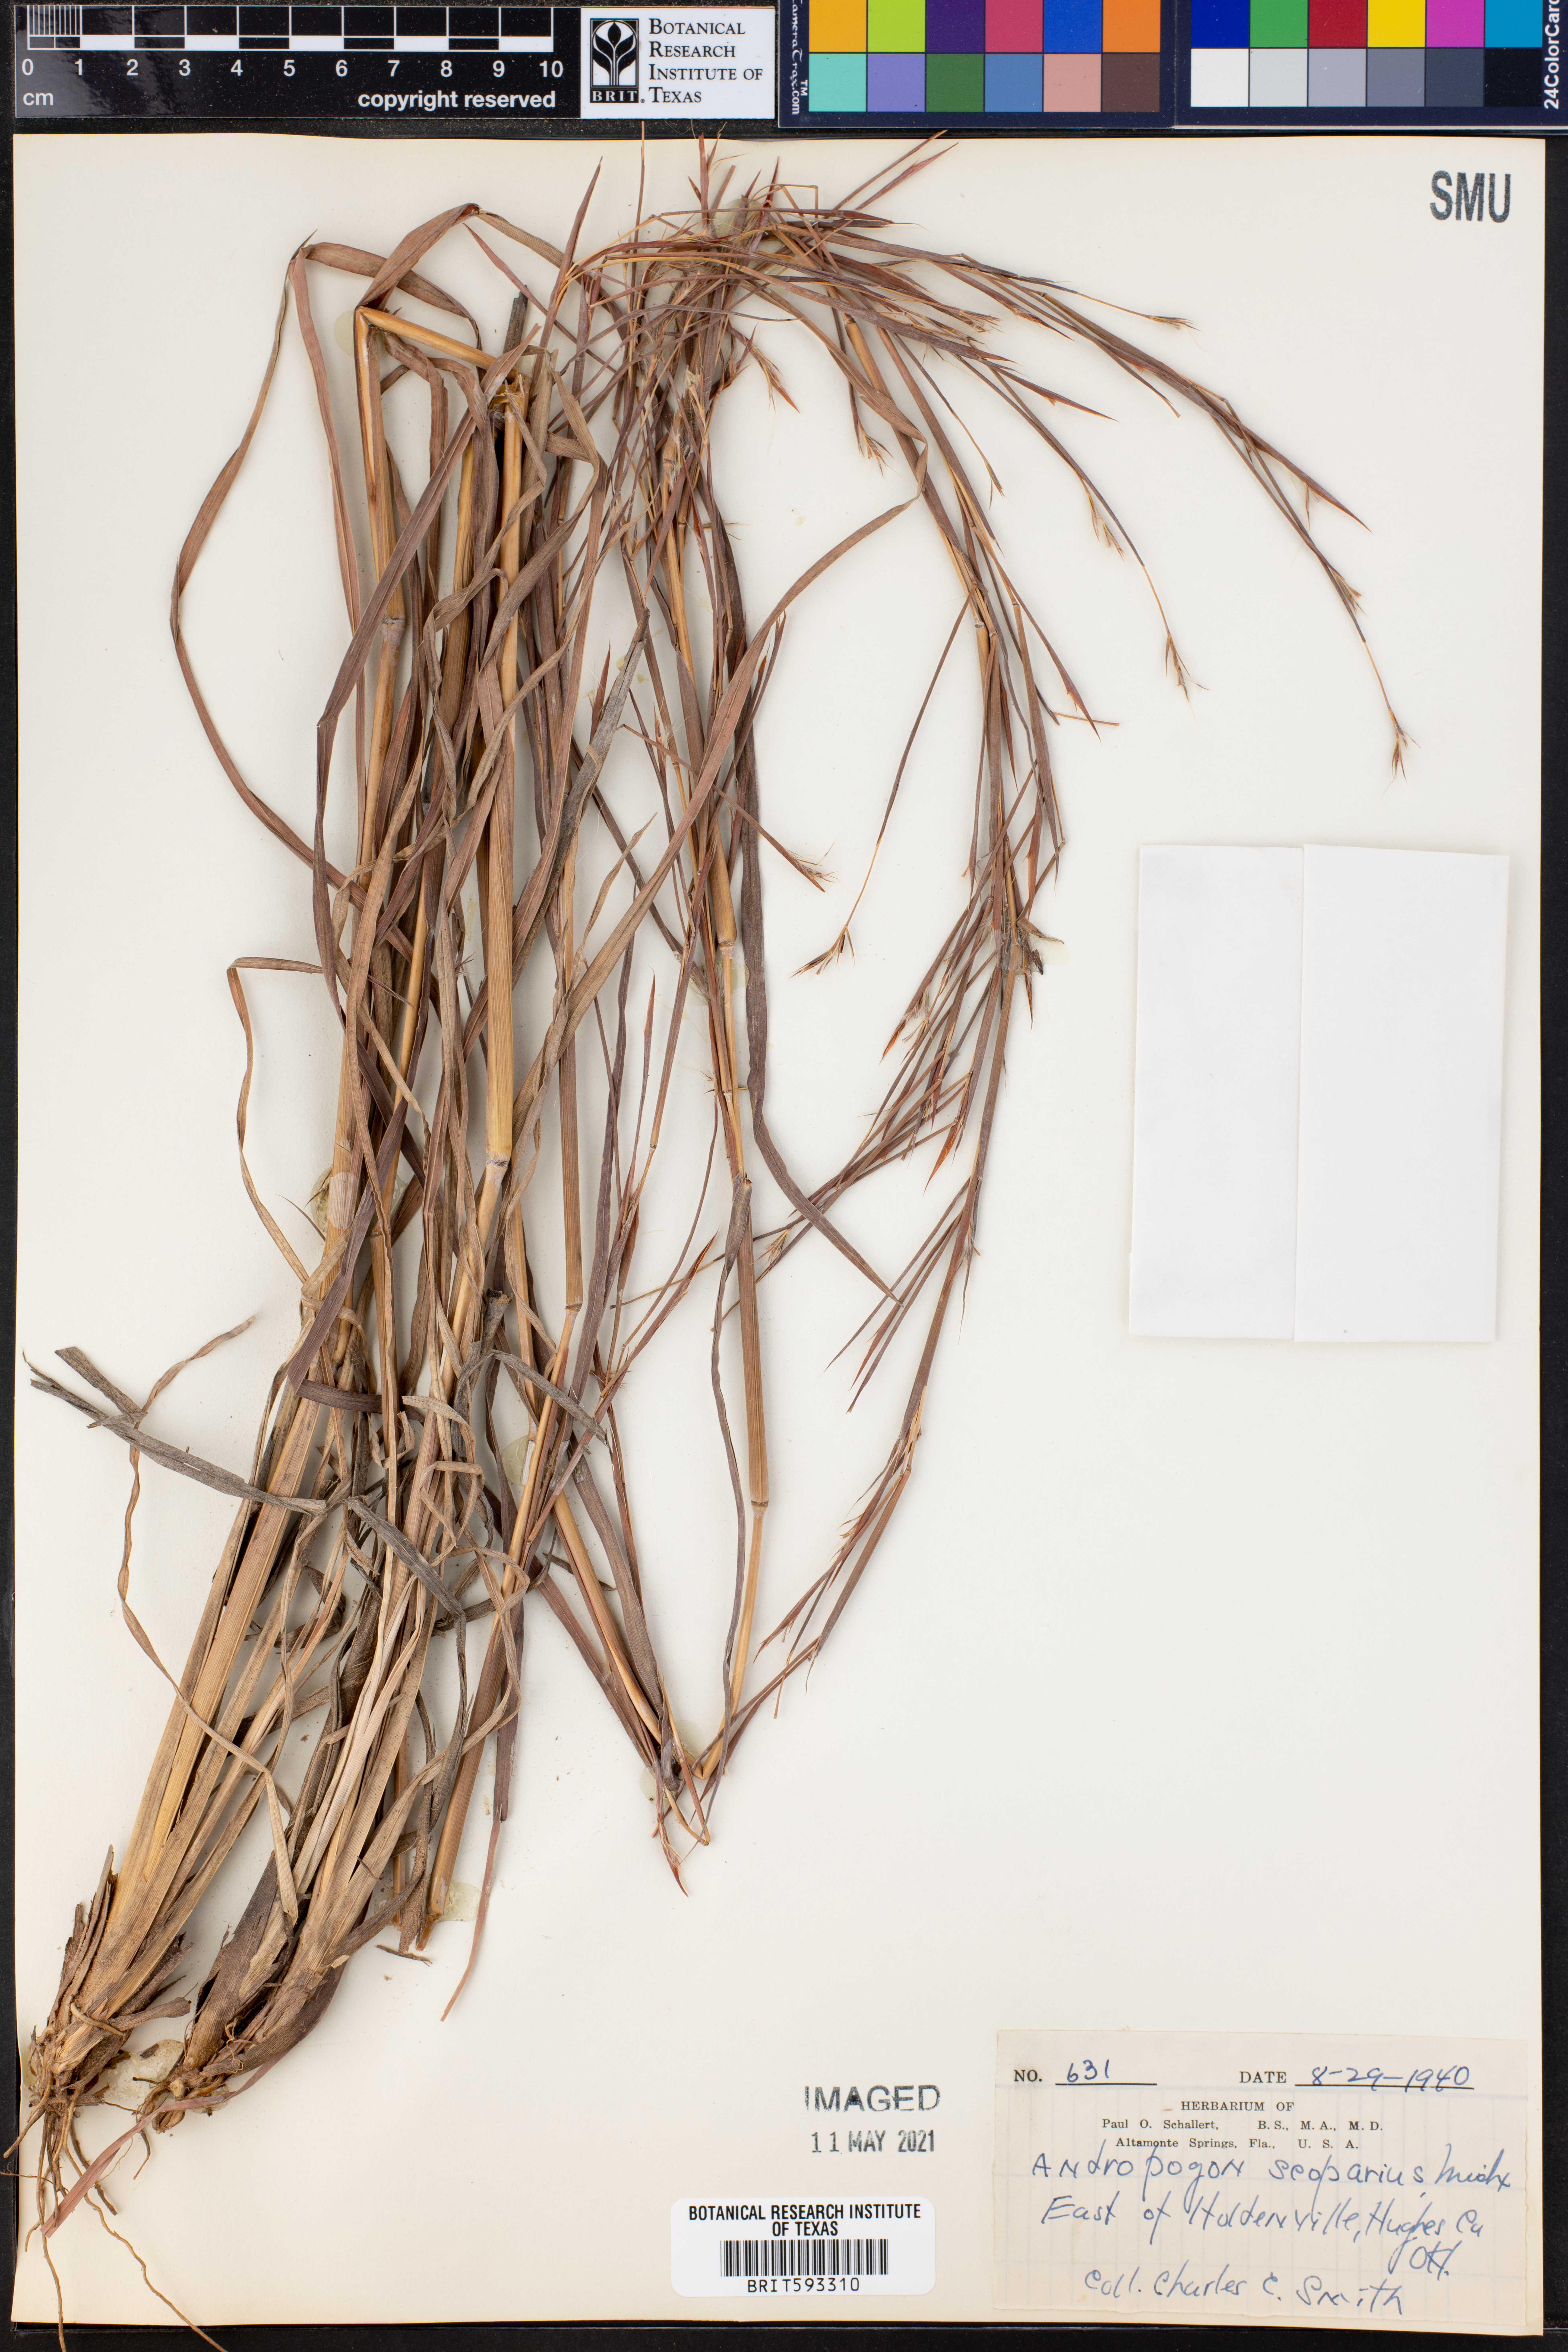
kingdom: Plantae
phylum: Tracheophyta
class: Liliopsida
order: Poales
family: Poaceae
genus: Schizachyrium
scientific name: Schizachyrium scoparium
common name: Little bluestem
